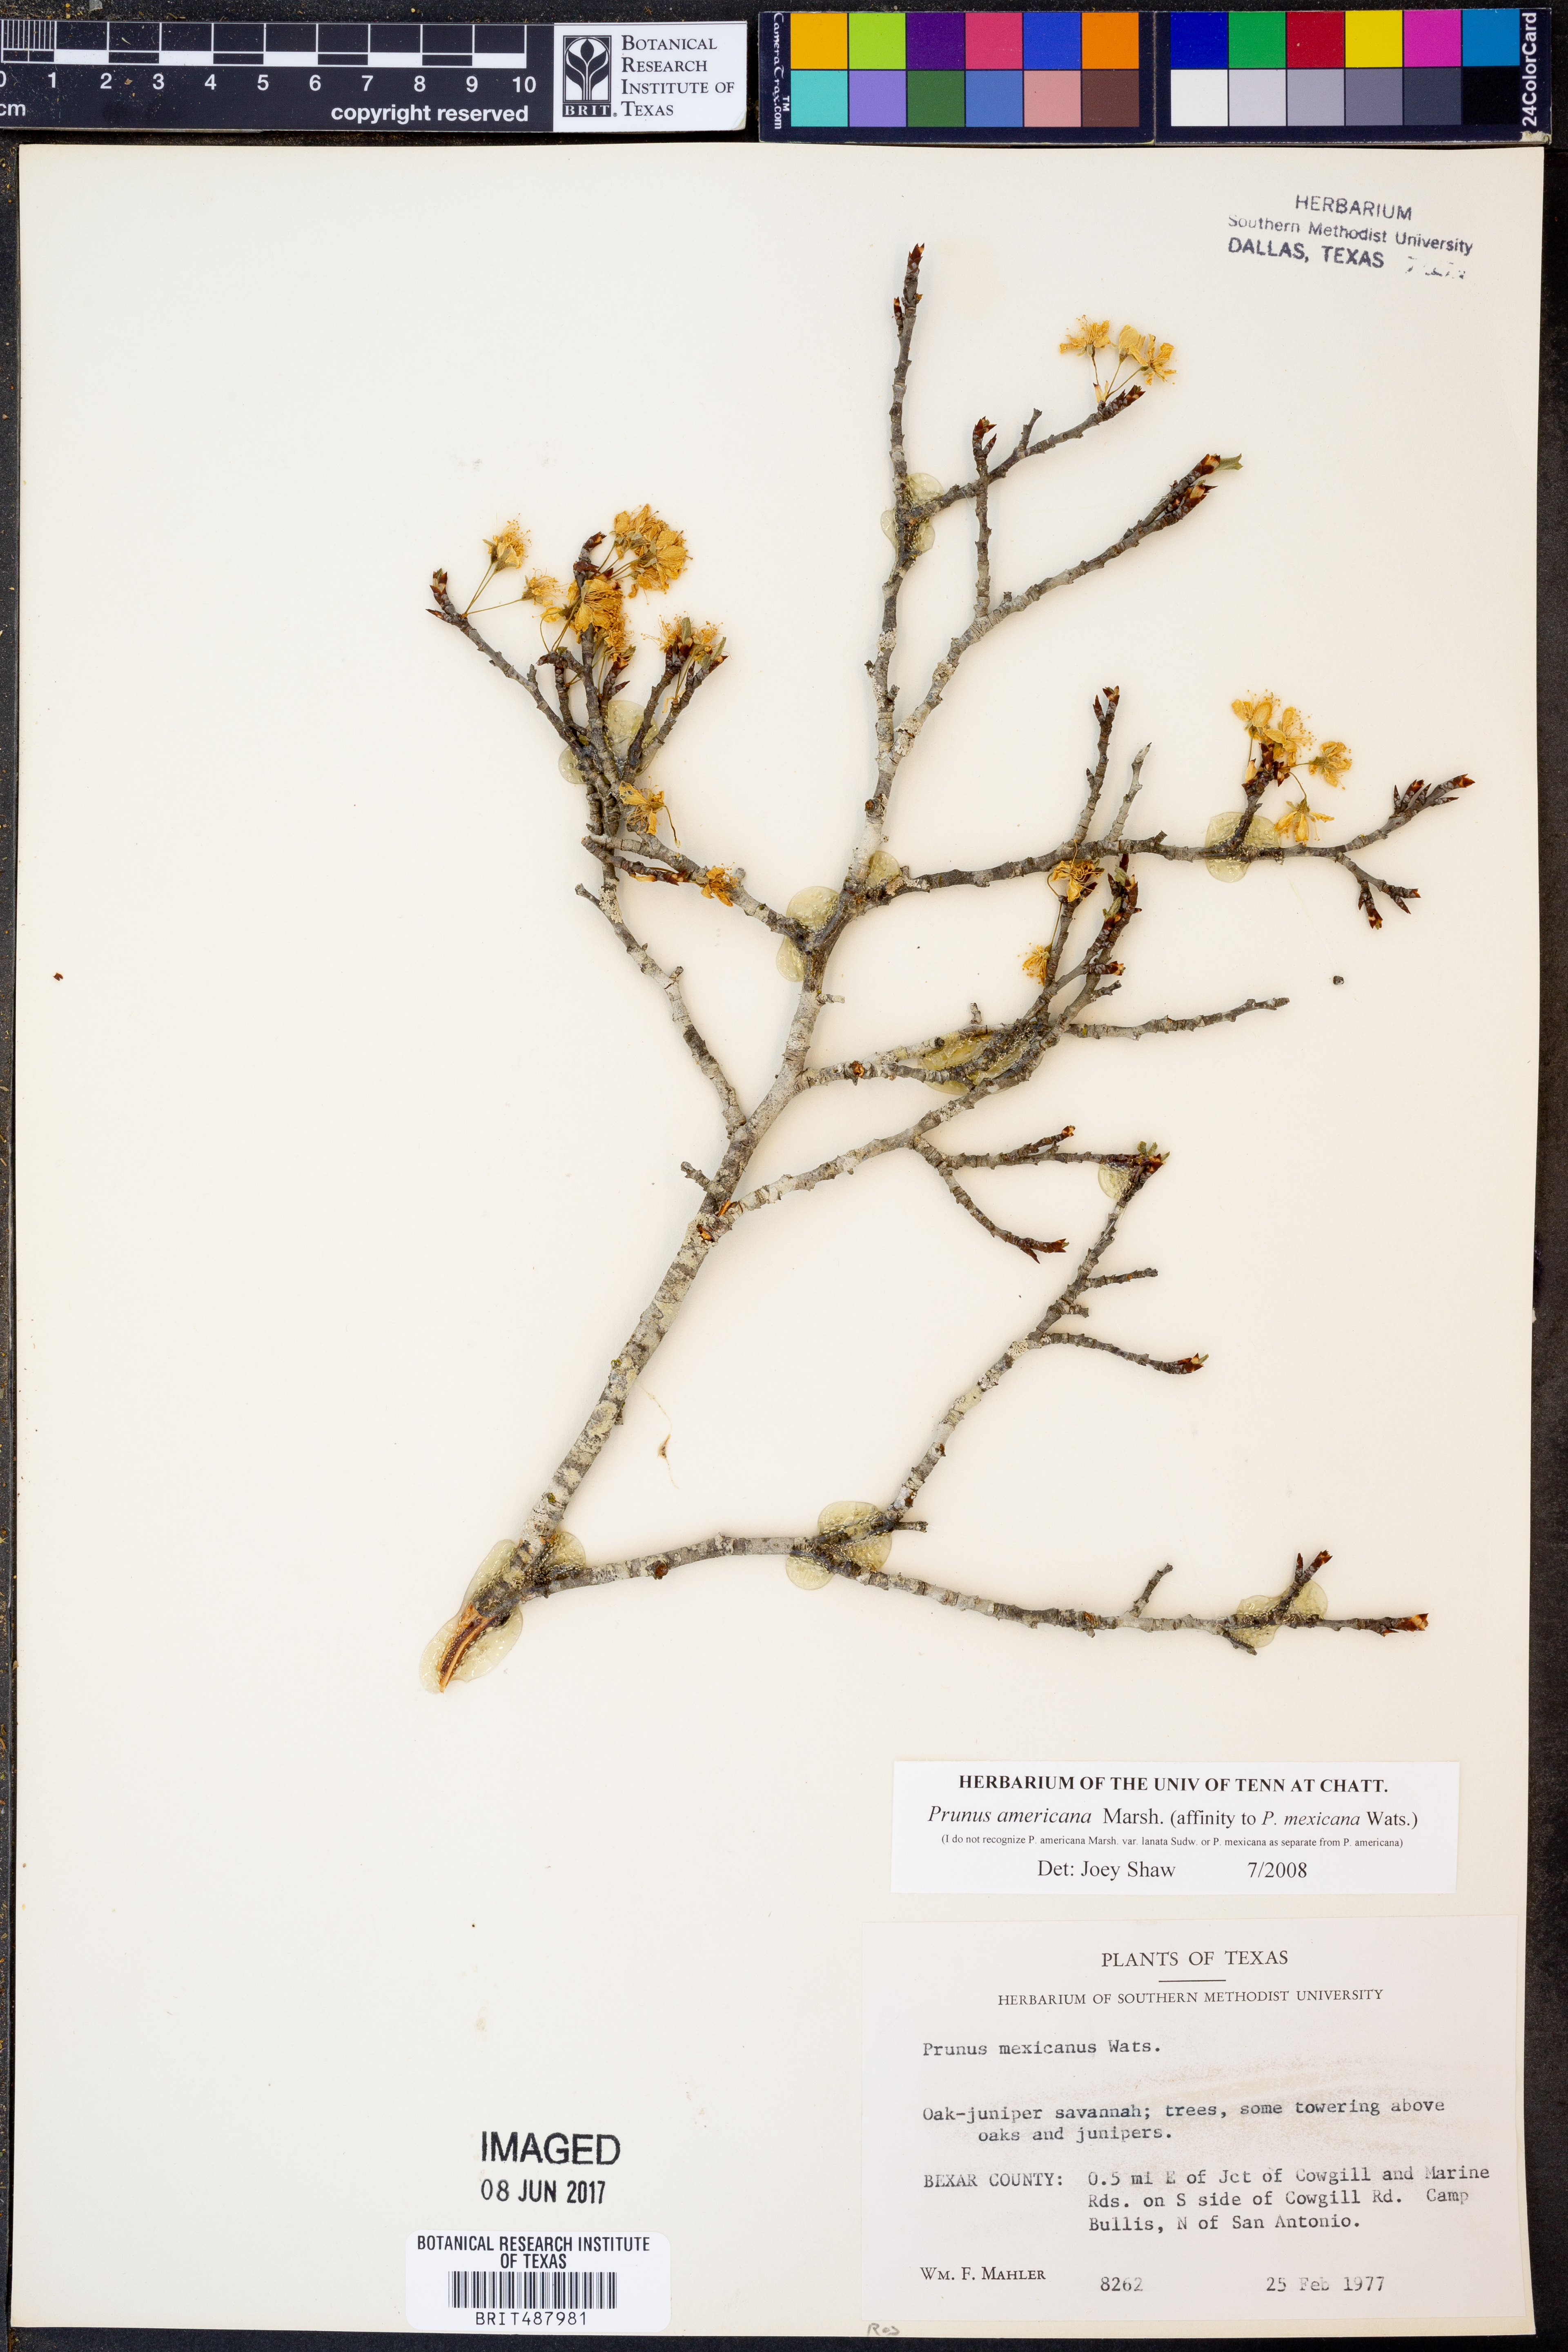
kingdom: Plantae
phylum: Tracheophyta
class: Magnoliopsida
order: Rosales
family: Rosaceae
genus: Prunus
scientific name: Prunus americana
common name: American plum
